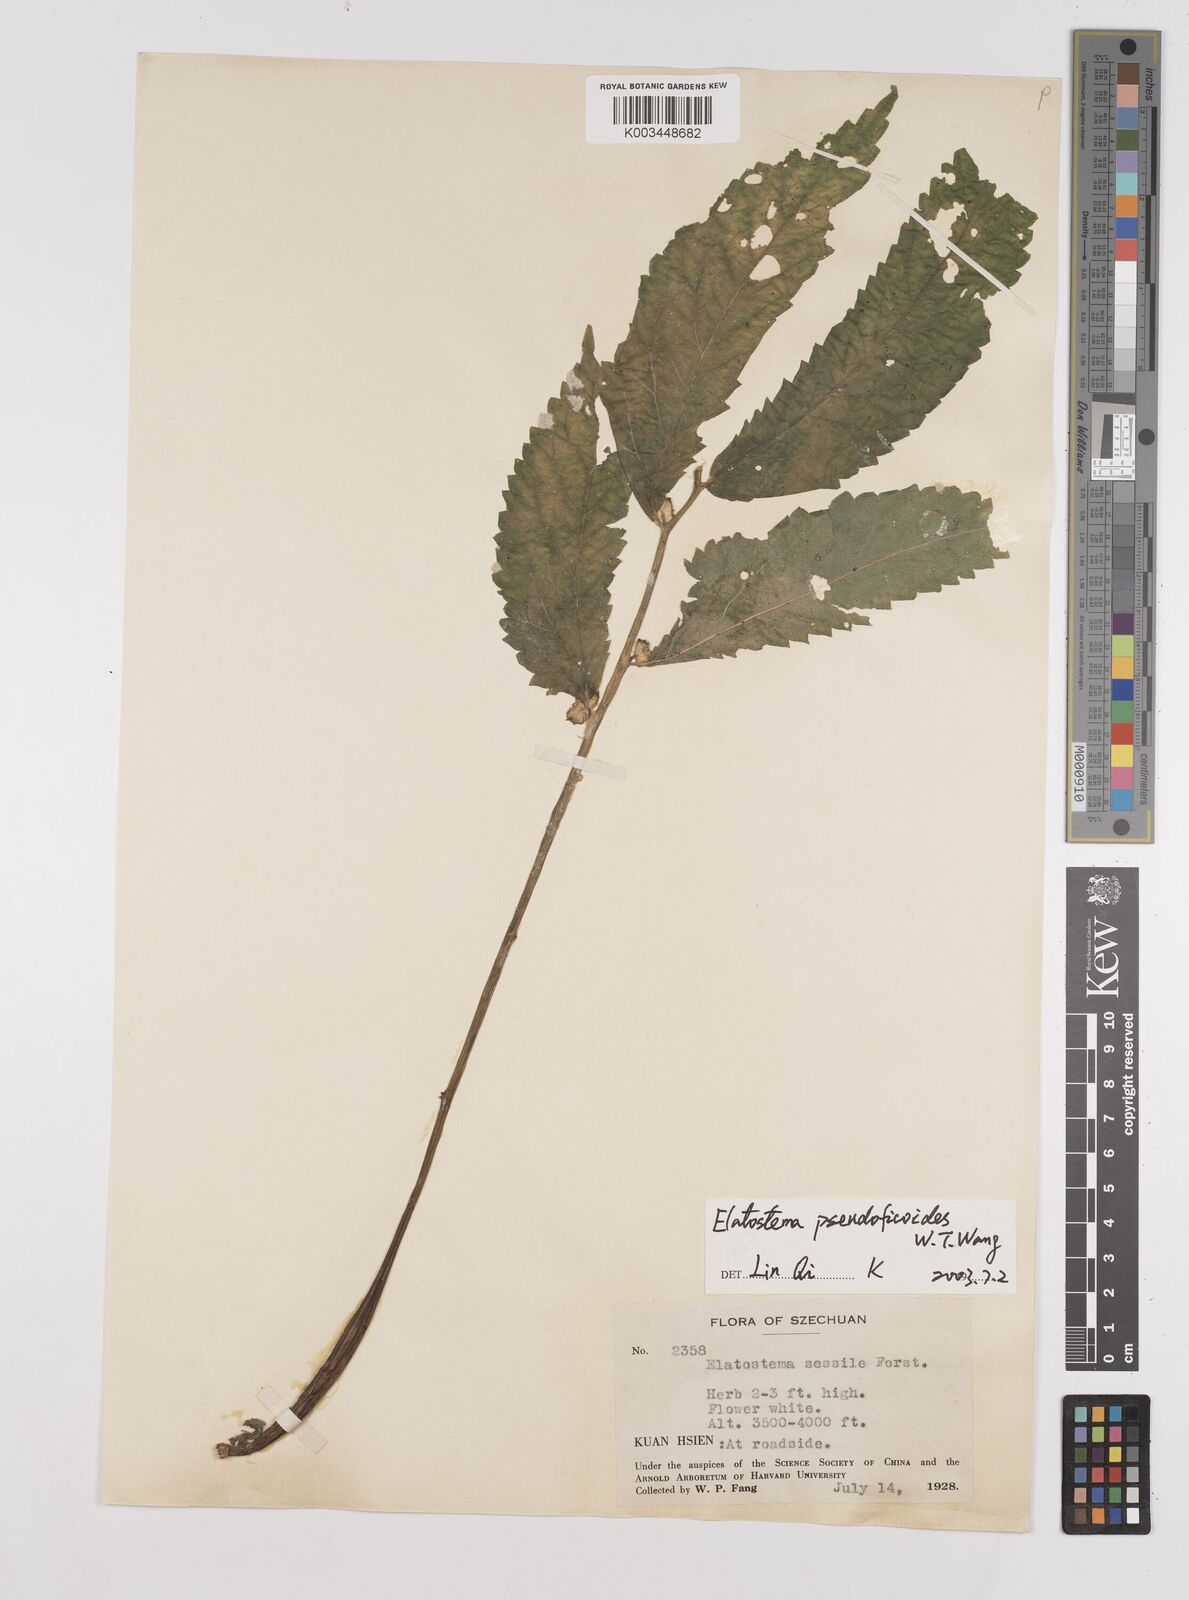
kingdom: Plantae
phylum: Tracheophyta
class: Magnoliopsida
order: Rosales
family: Urticaceae
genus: Elatostema
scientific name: Elatostema pseudoficoides
